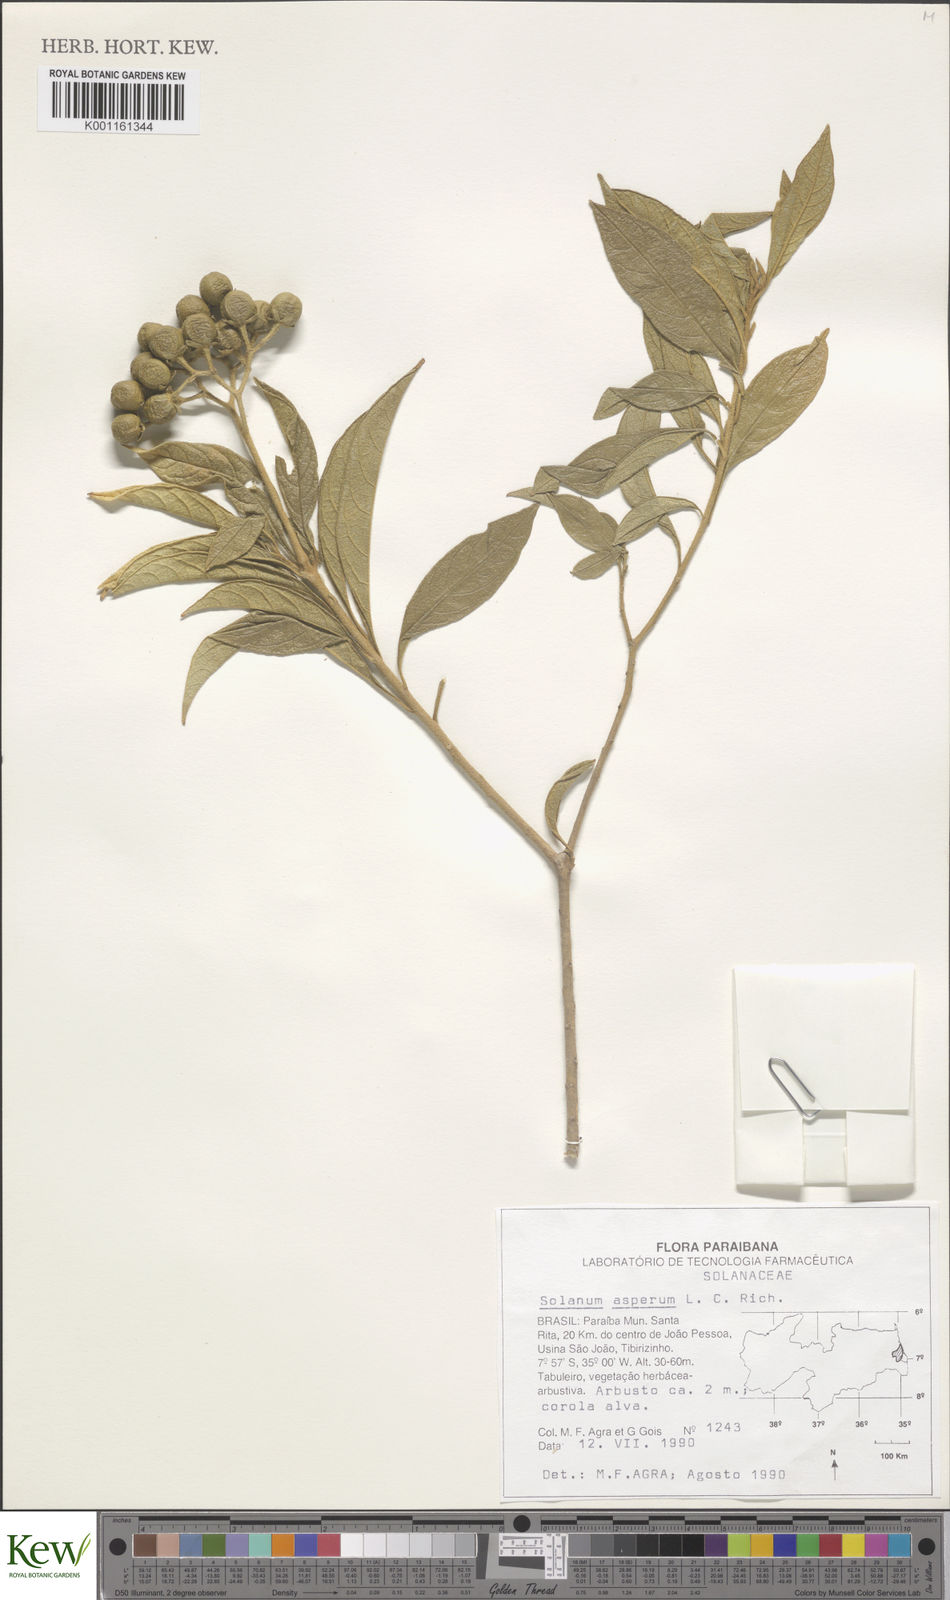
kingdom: Plantae
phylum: Tracheophyta
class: Magnoliopsida
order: Solanales
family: Solanaceae
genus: Solanum
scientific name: Solanum asperum
